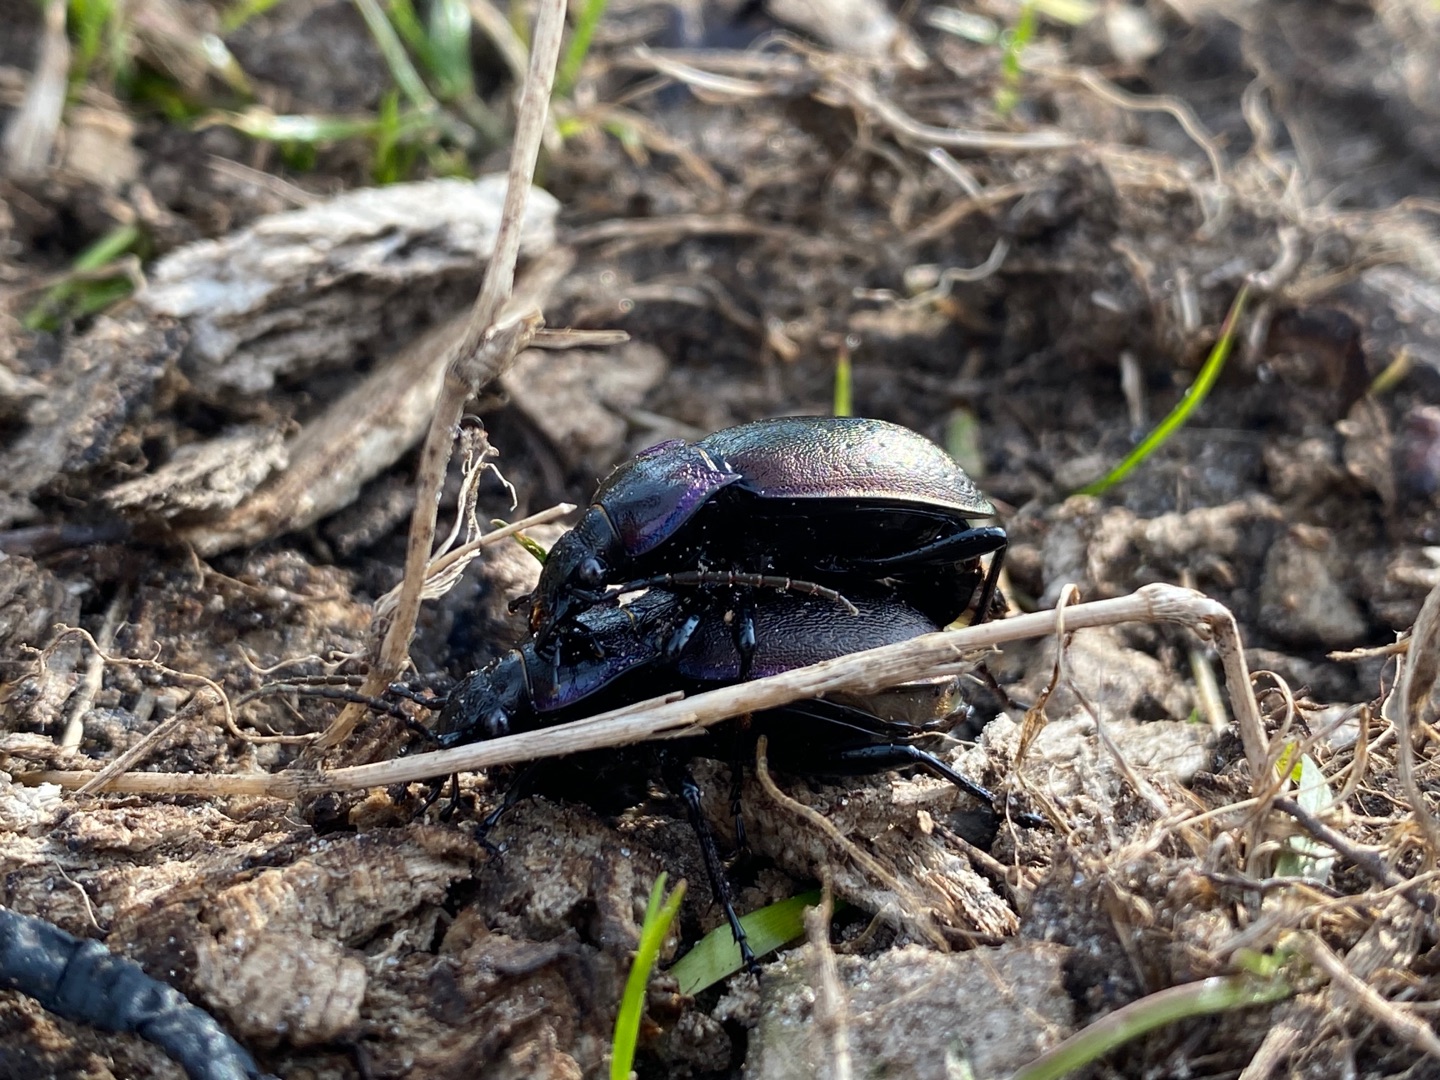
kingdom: Animalia
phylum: Arthropoda
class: Insecta
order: Coleoptera
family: Carabidae
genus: Carabus
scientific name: Carabus nemoralis
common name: Kratløber
